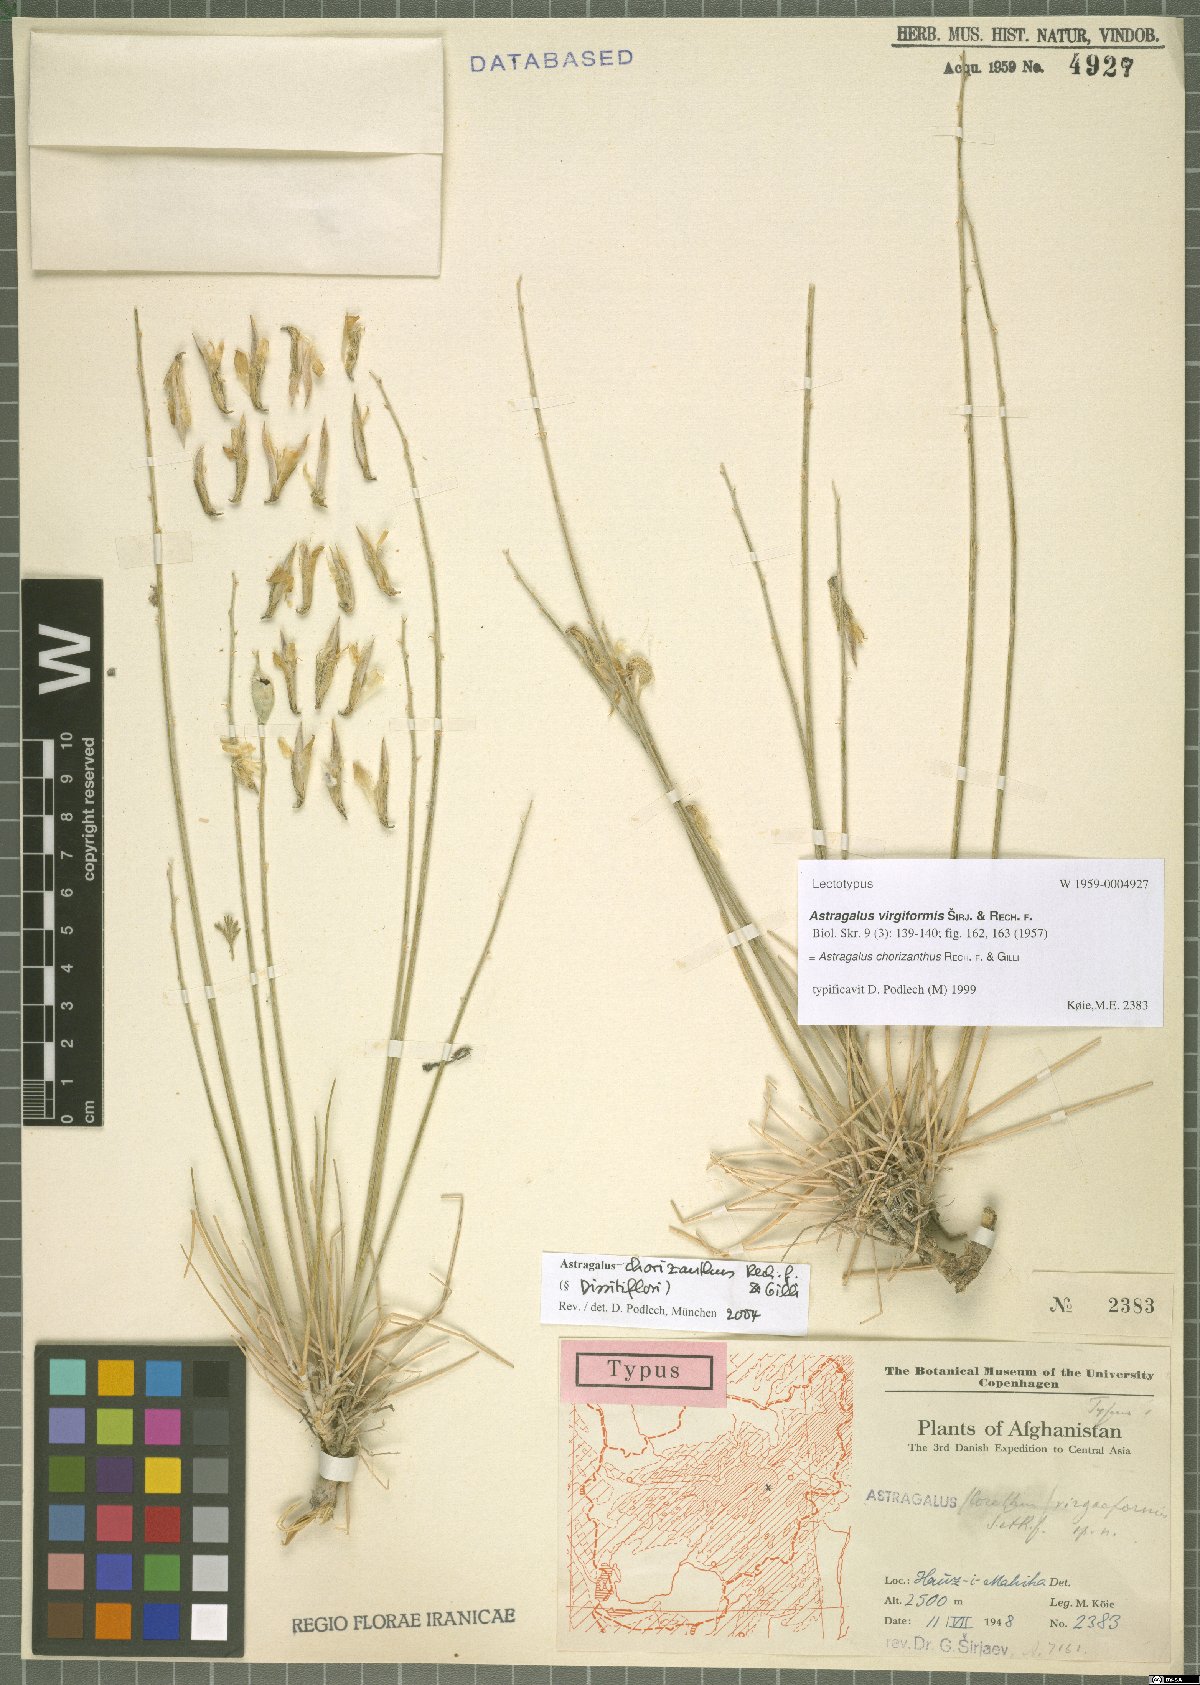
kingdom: Plantae
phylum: Tracheophyta
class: Magnoliopsida
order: Fabales
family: Fabaceae
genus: Astragalus
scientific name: Astragalus chorizanthus
